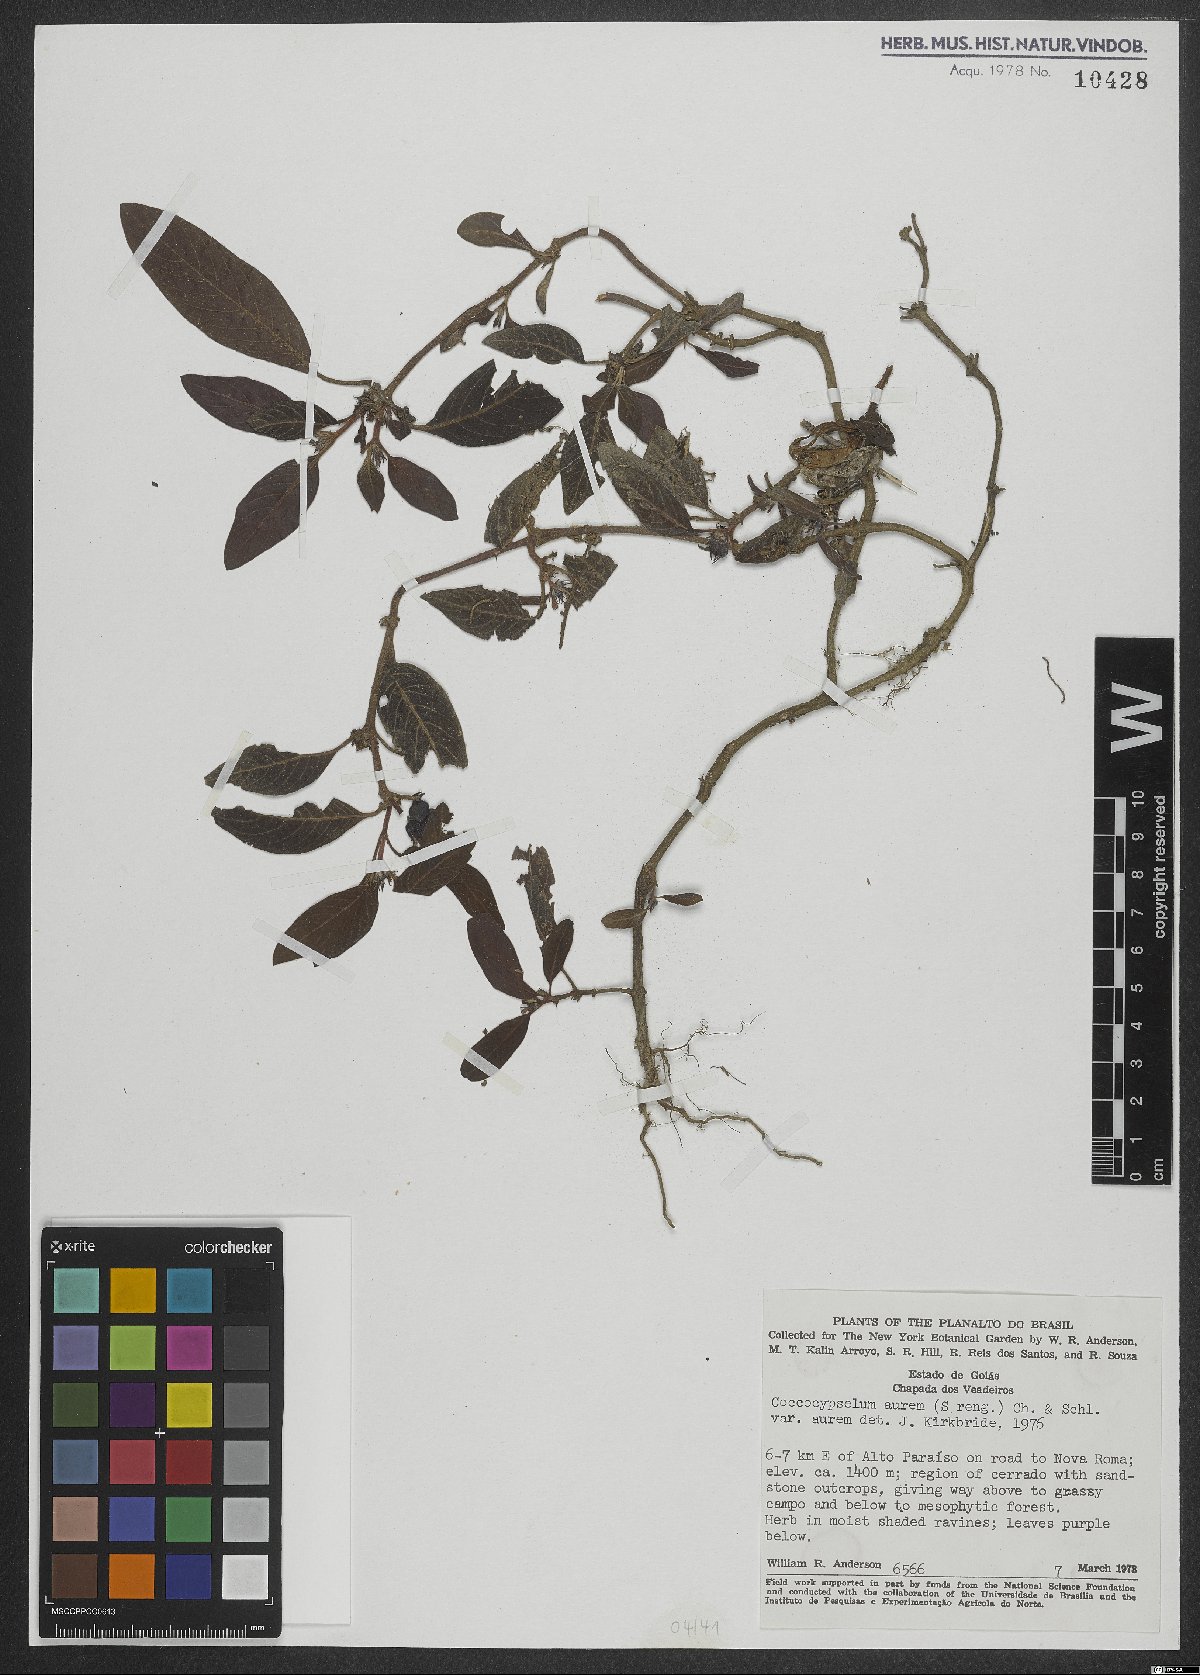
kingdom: Plantae
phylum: Tracheophyta
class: Magnoliopsida
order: Gentianales
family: Rubiaceae
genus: Coccocypselum
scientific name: Coccocypselum aureum
